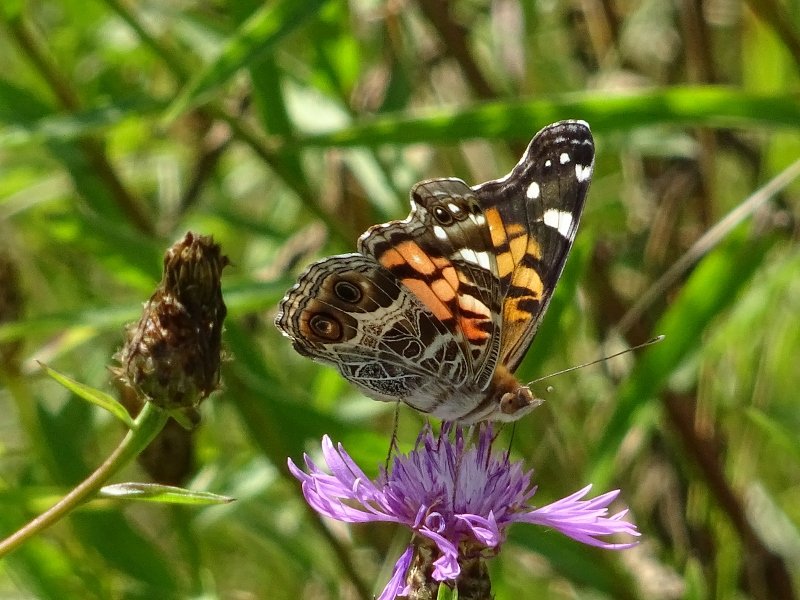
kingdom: Animalia
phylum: Arthropoda
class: Insecta
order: Lepidoptera
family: Nymphalidae
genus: Vanessa
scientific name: Vanessa virginiensis
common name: American Lady
